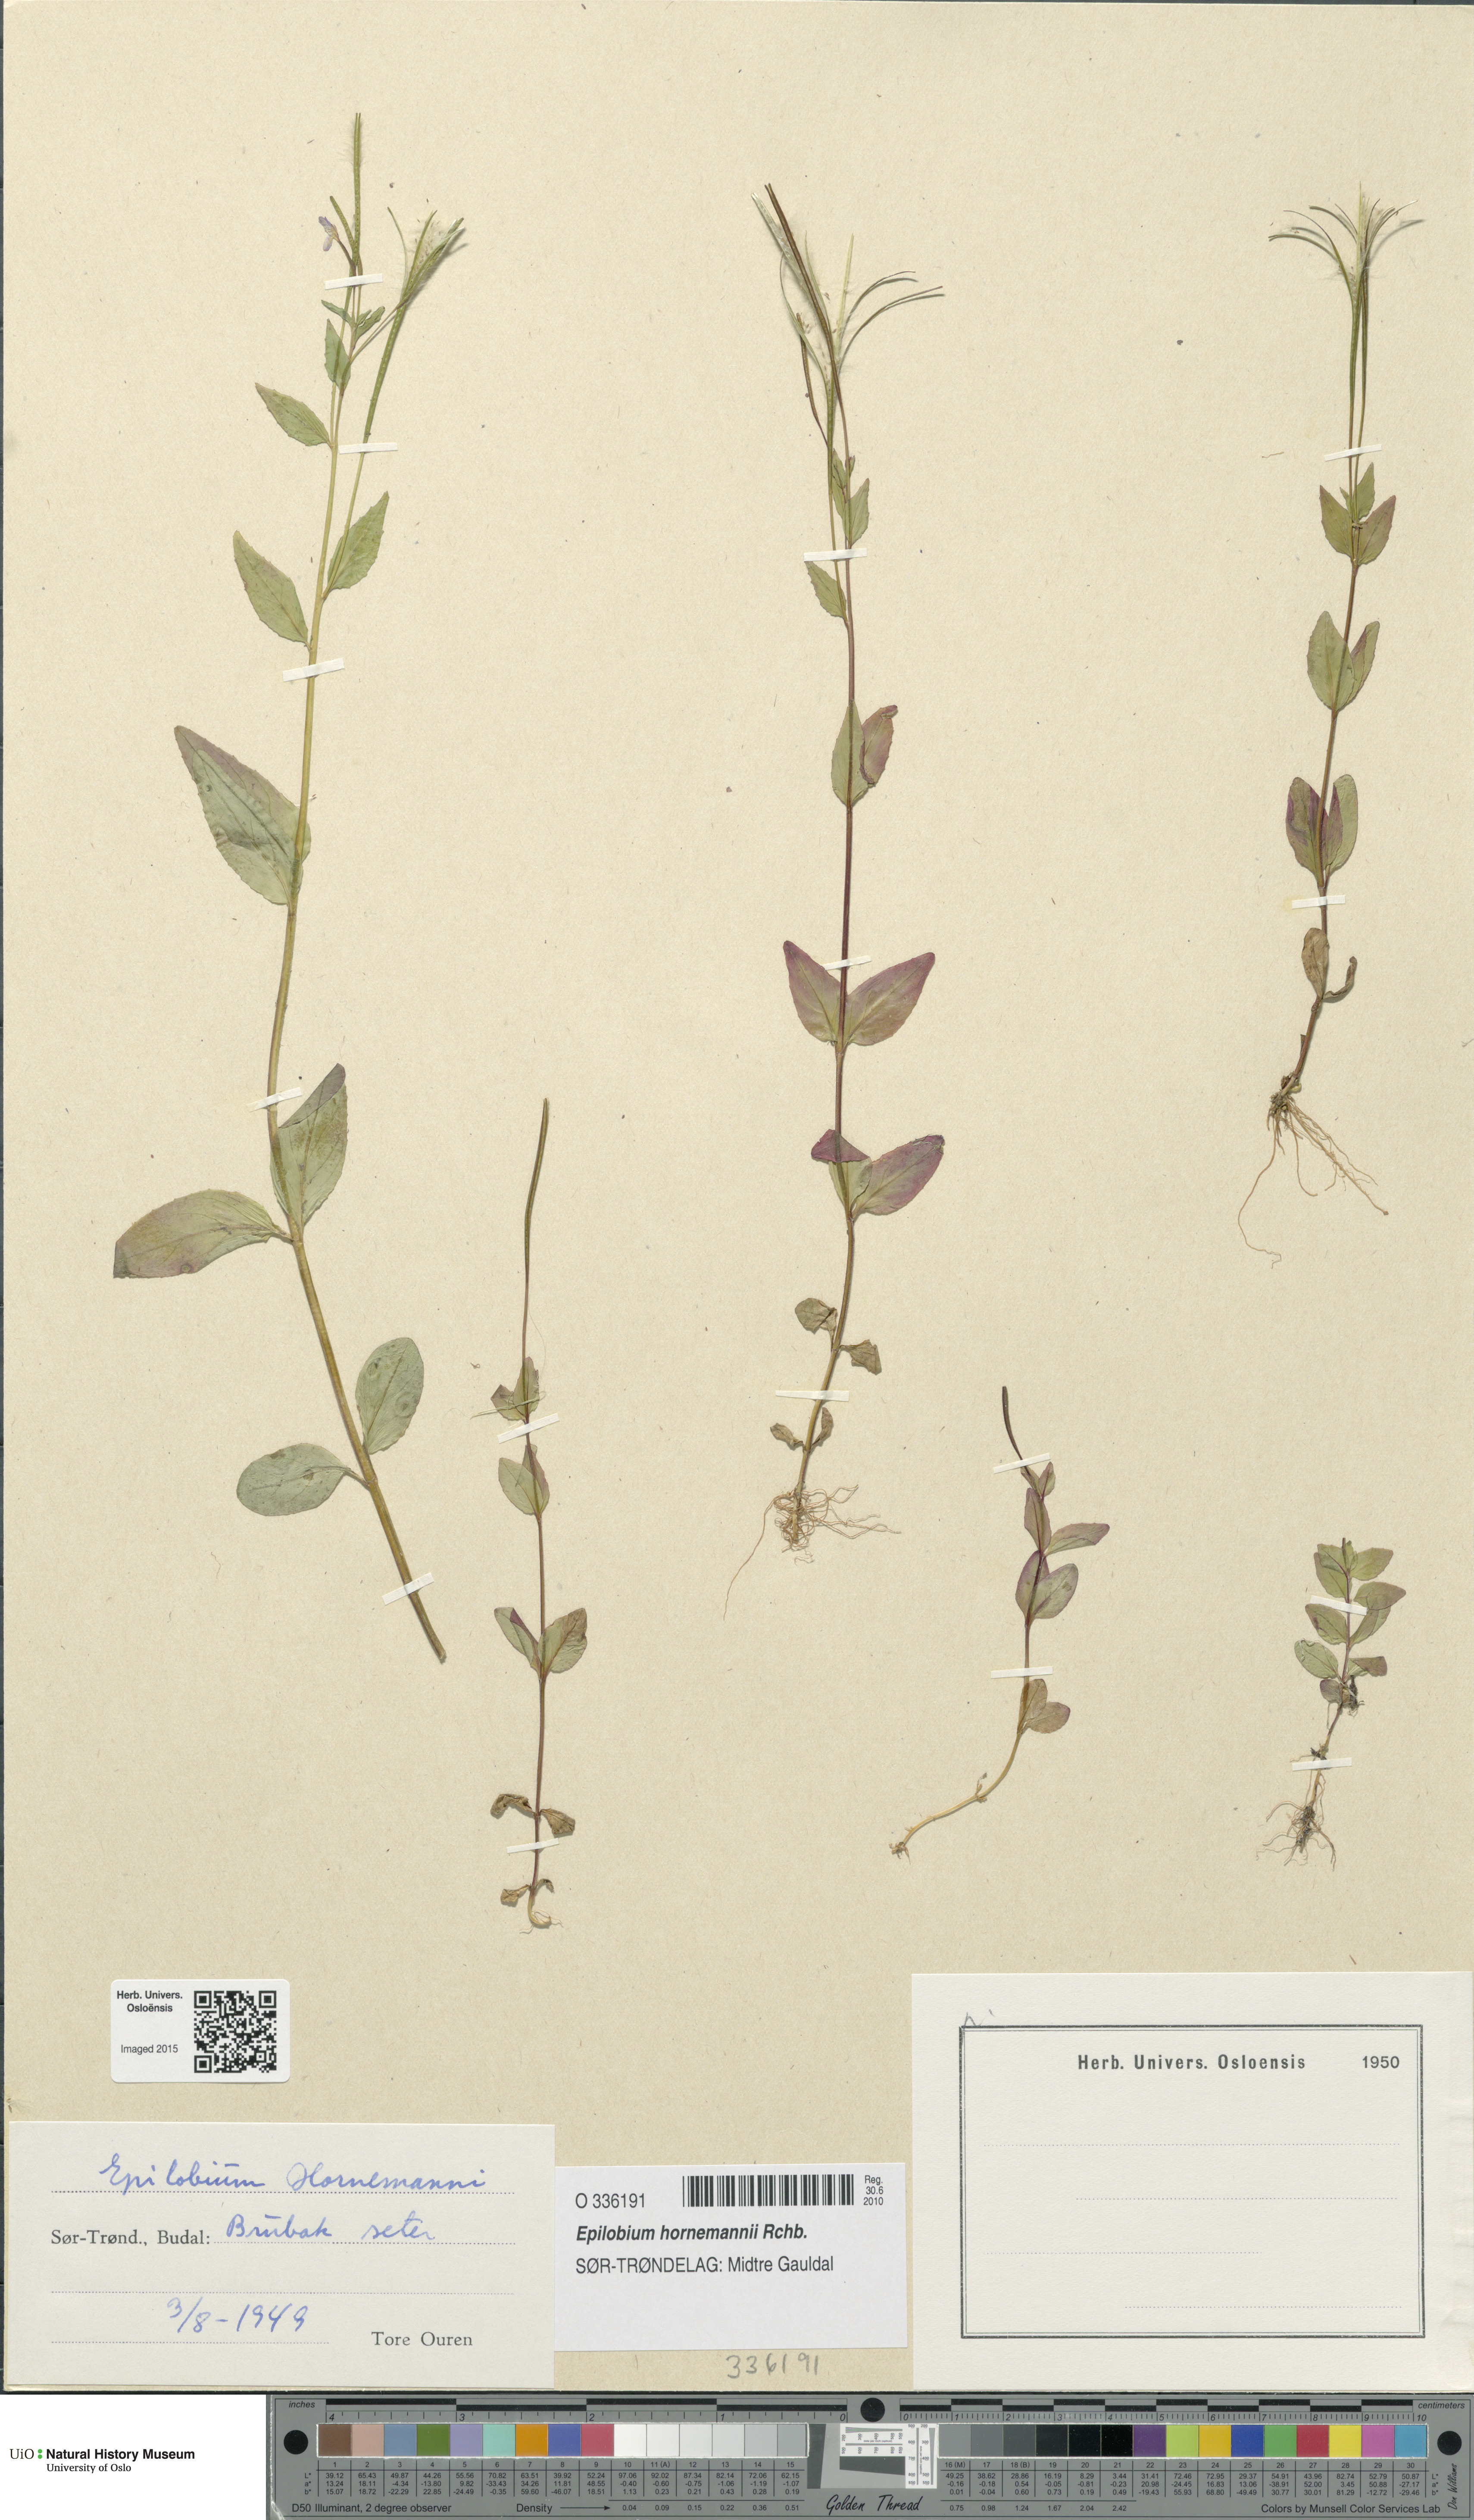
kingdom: Plantae
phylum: Tracheophyta
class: Magnoliopsida
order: Myrtales
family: Onagraceae
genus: Epilobium
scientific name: Epilobium hornemannii
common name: Hornemann's willowherb
